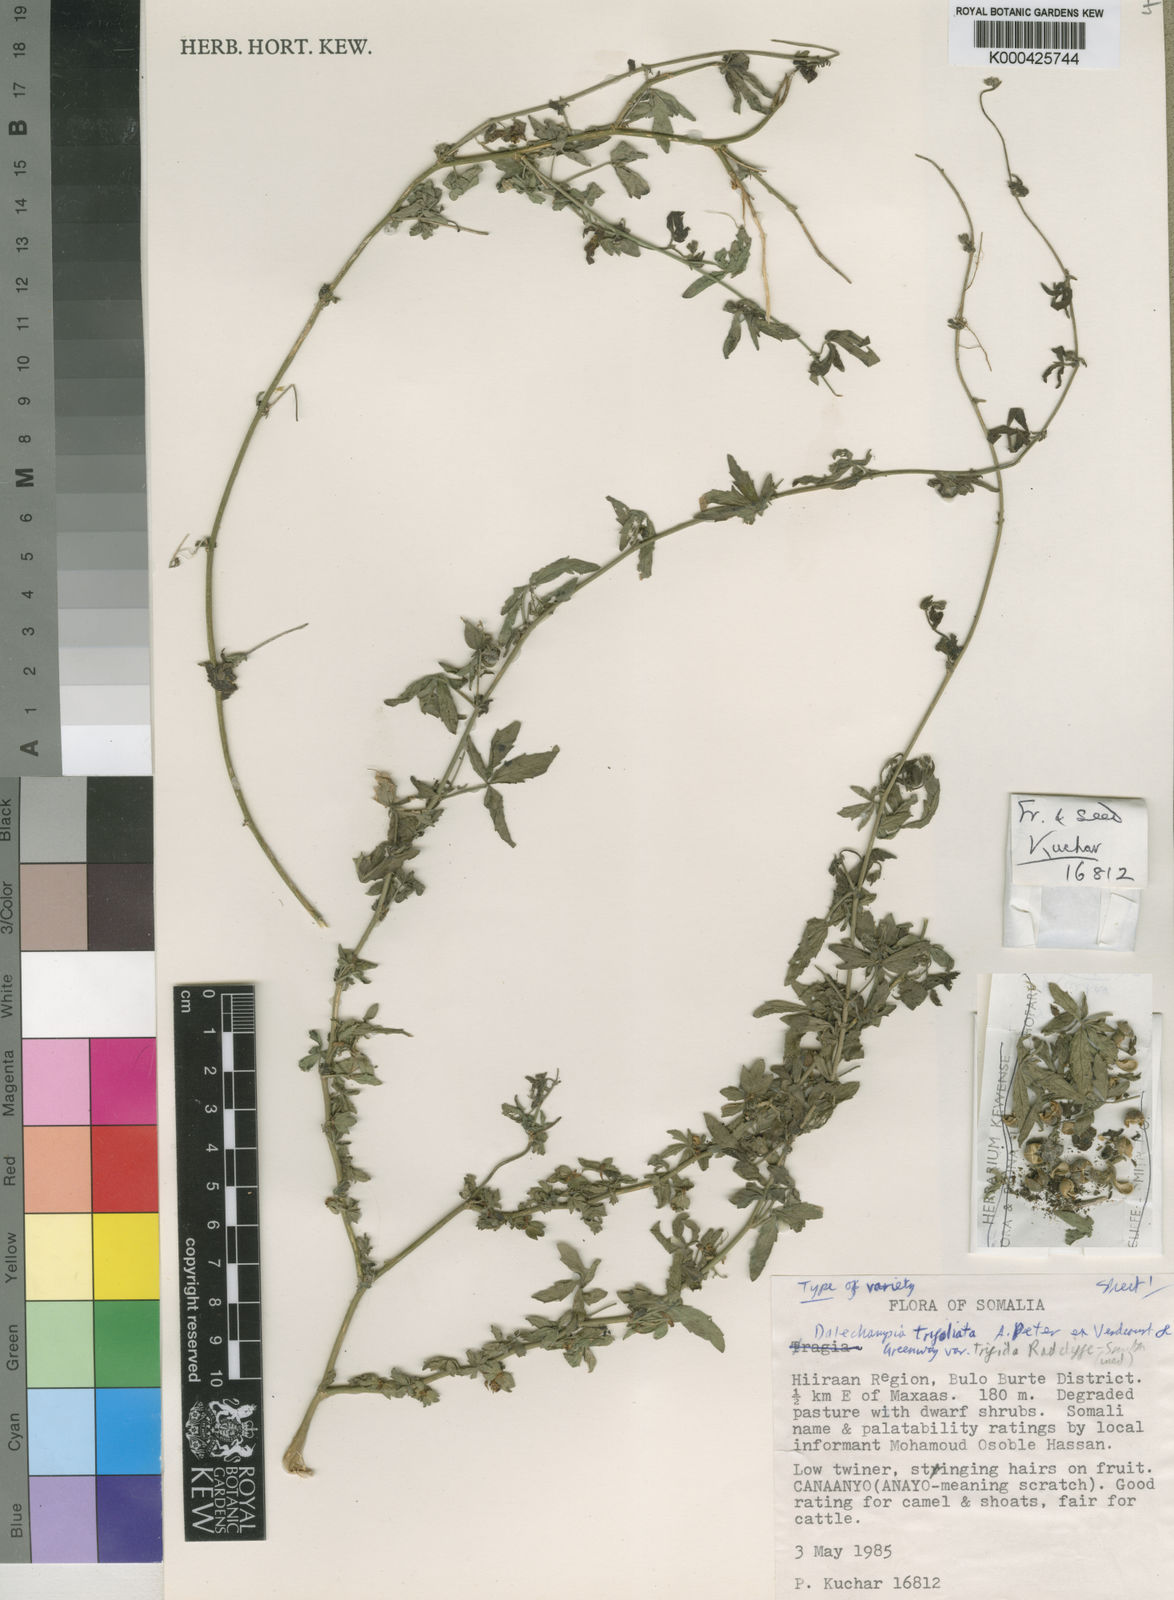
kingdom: Plantae
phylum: Tracheophyta
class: Magnoliopsida
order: Malpighiales
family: Euphorbiaceae
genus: Dalechampia
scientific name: Dalechampia trifoliata
